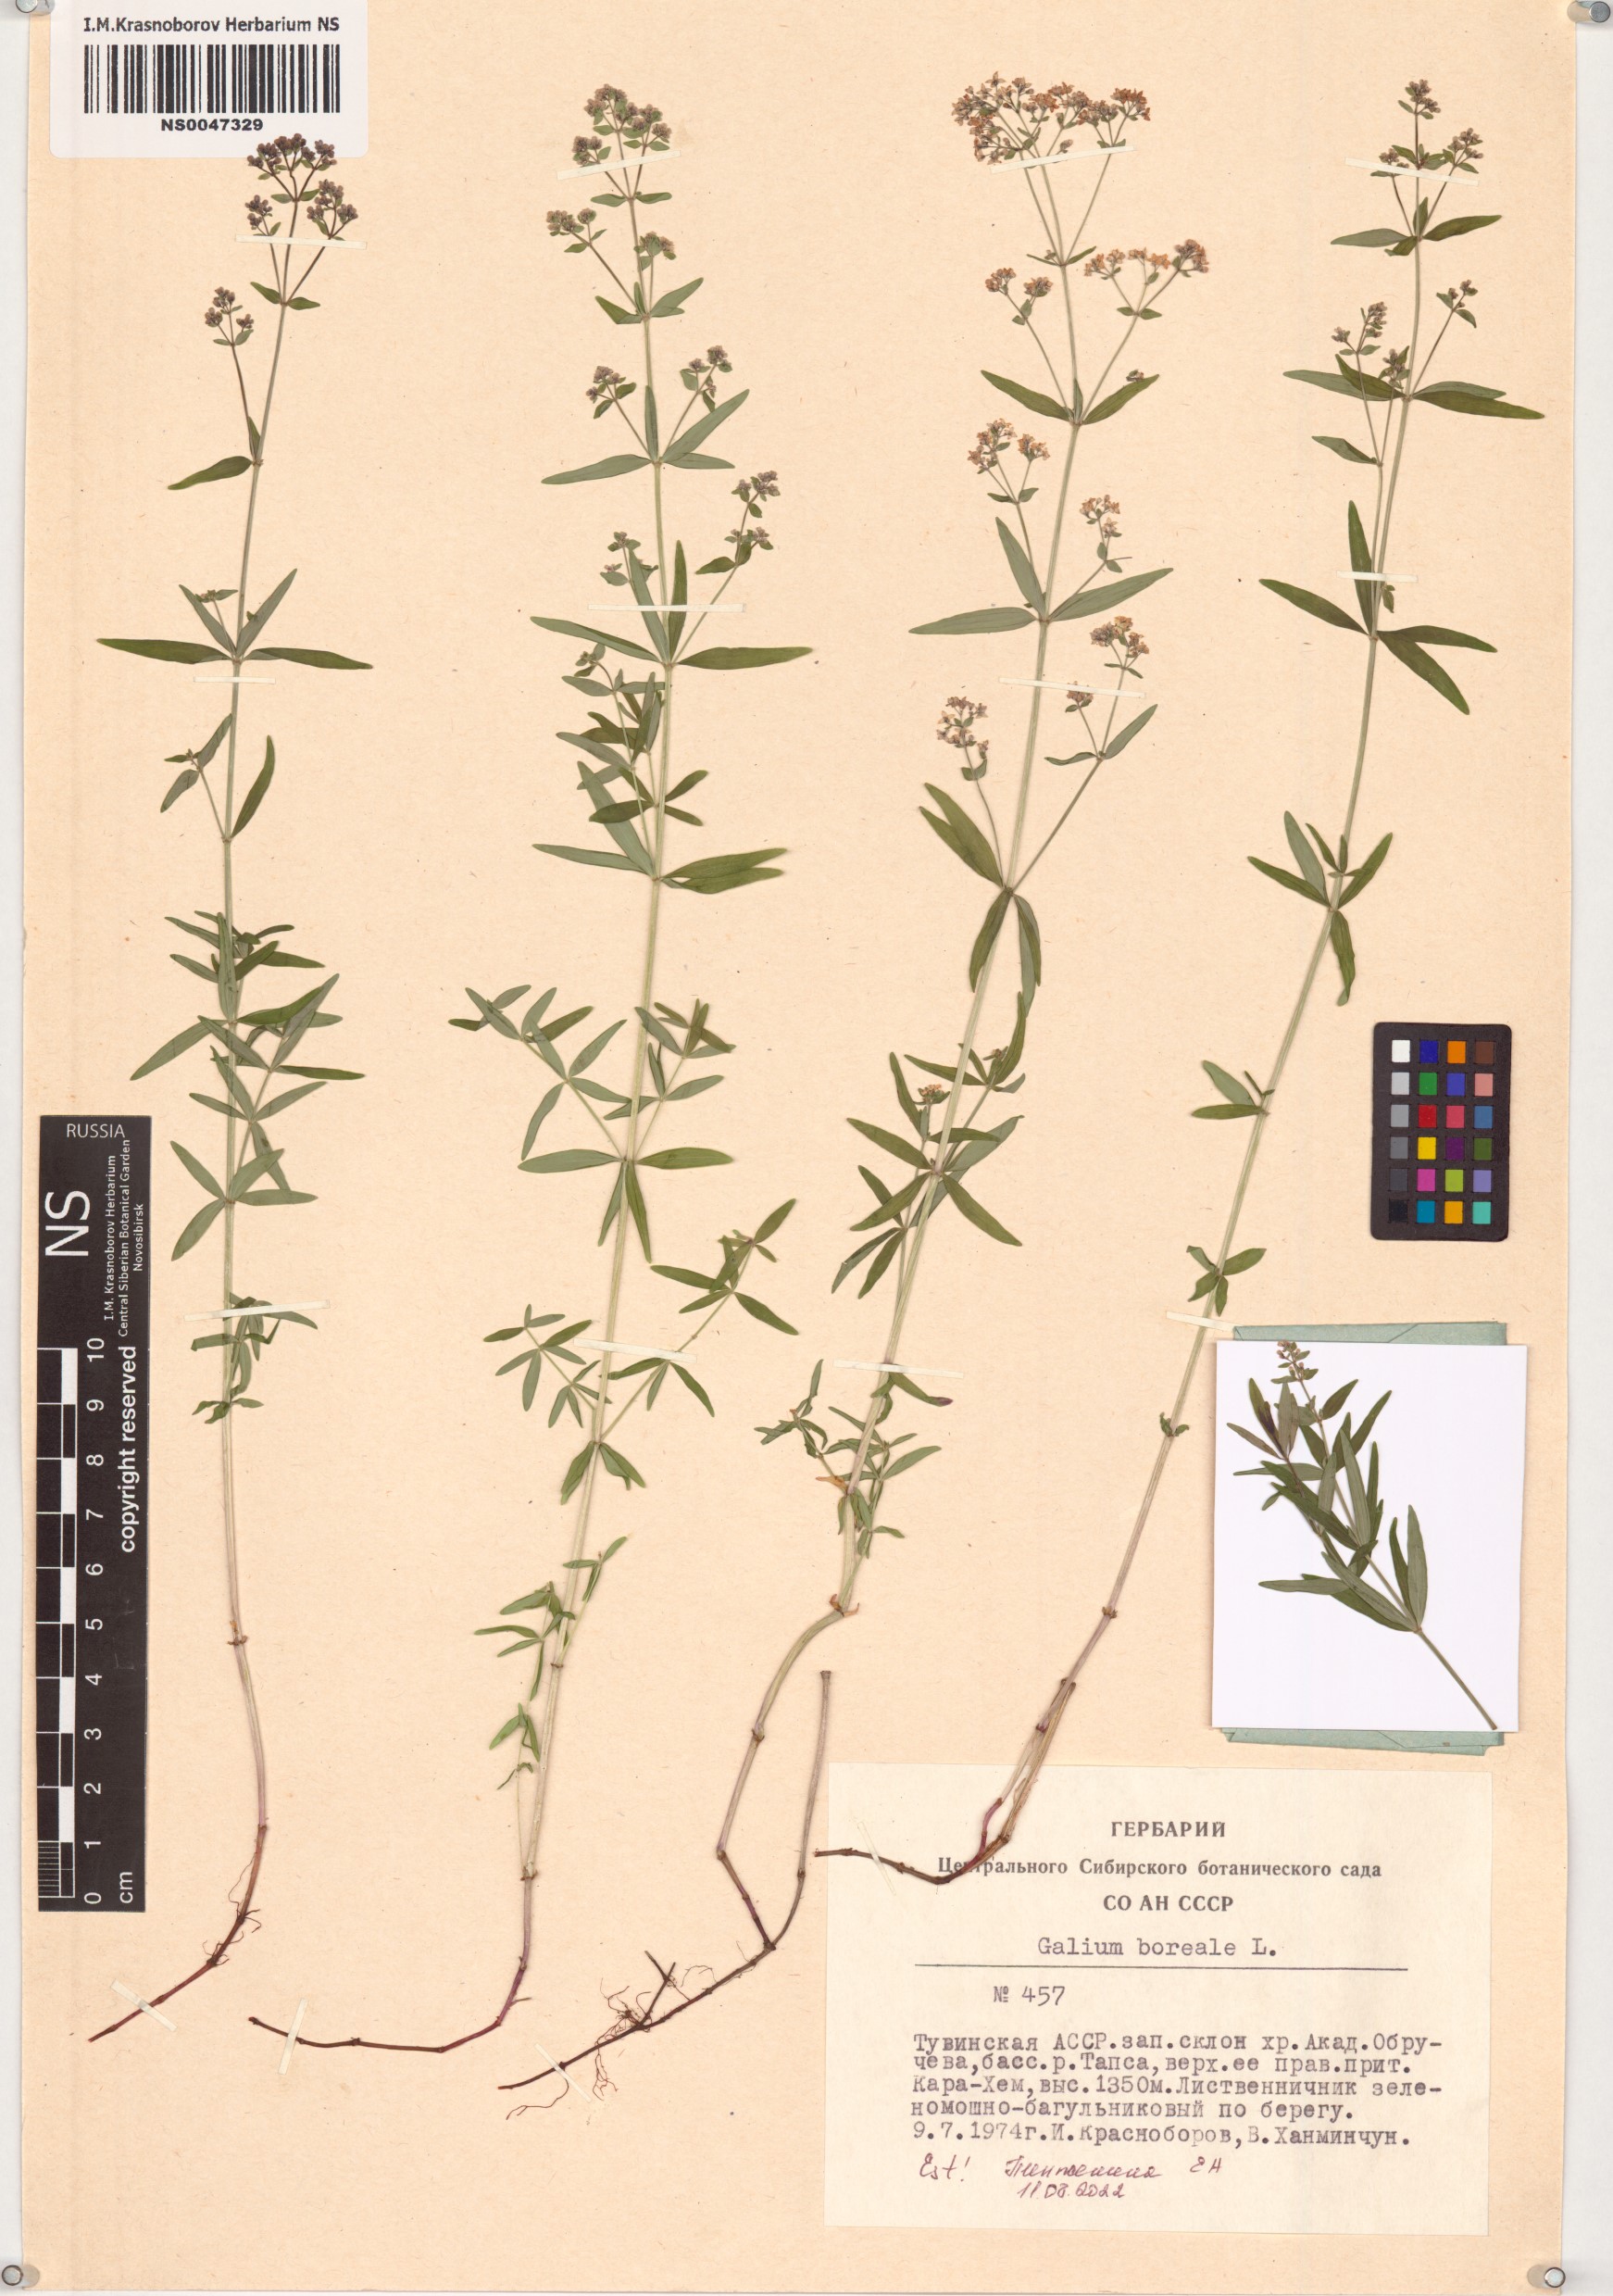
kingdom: Plantae
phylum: Tracheophyta
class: Magnoliopsida
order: Gentianales
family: Rubiaceae
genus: Galium
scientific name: Galium boreale
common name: Northern bedstraw
